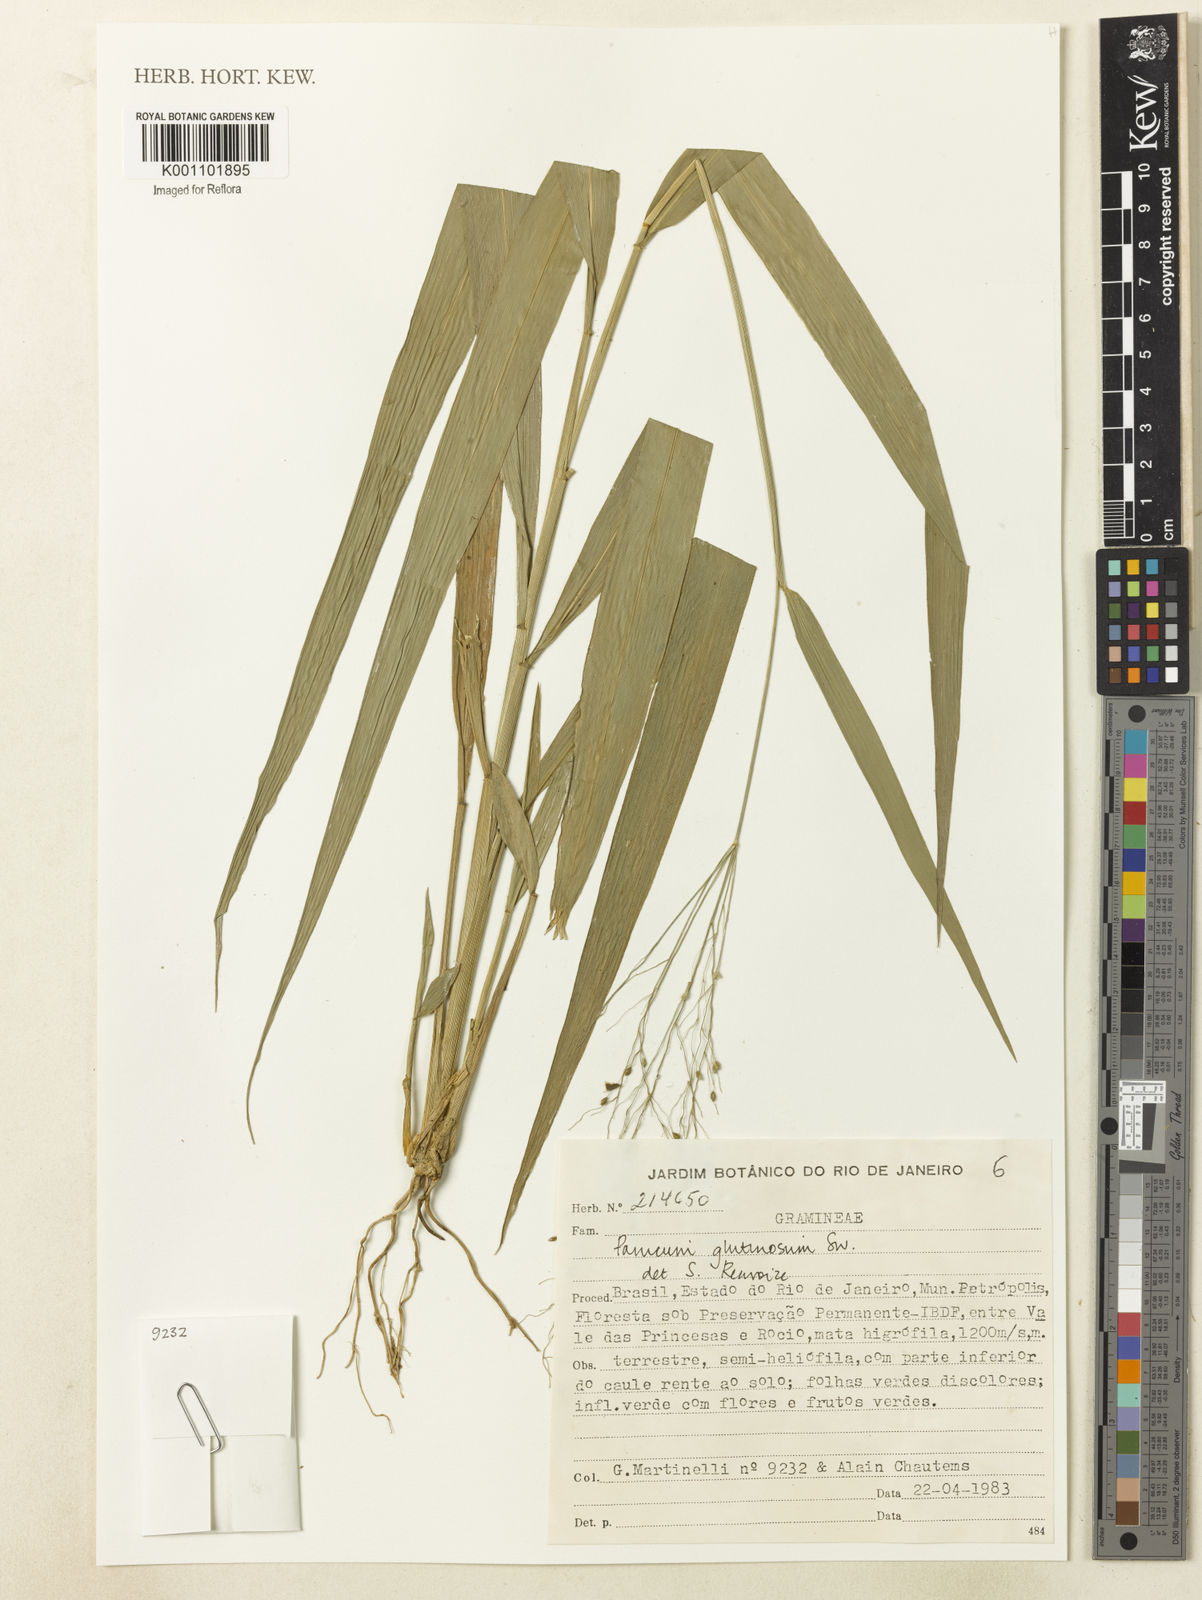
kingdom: Plantae
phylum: Tracheophyta
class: Liliopsida
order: Poales
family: Poaceae
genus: Homolepis
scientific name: Homolepis glutinosa
